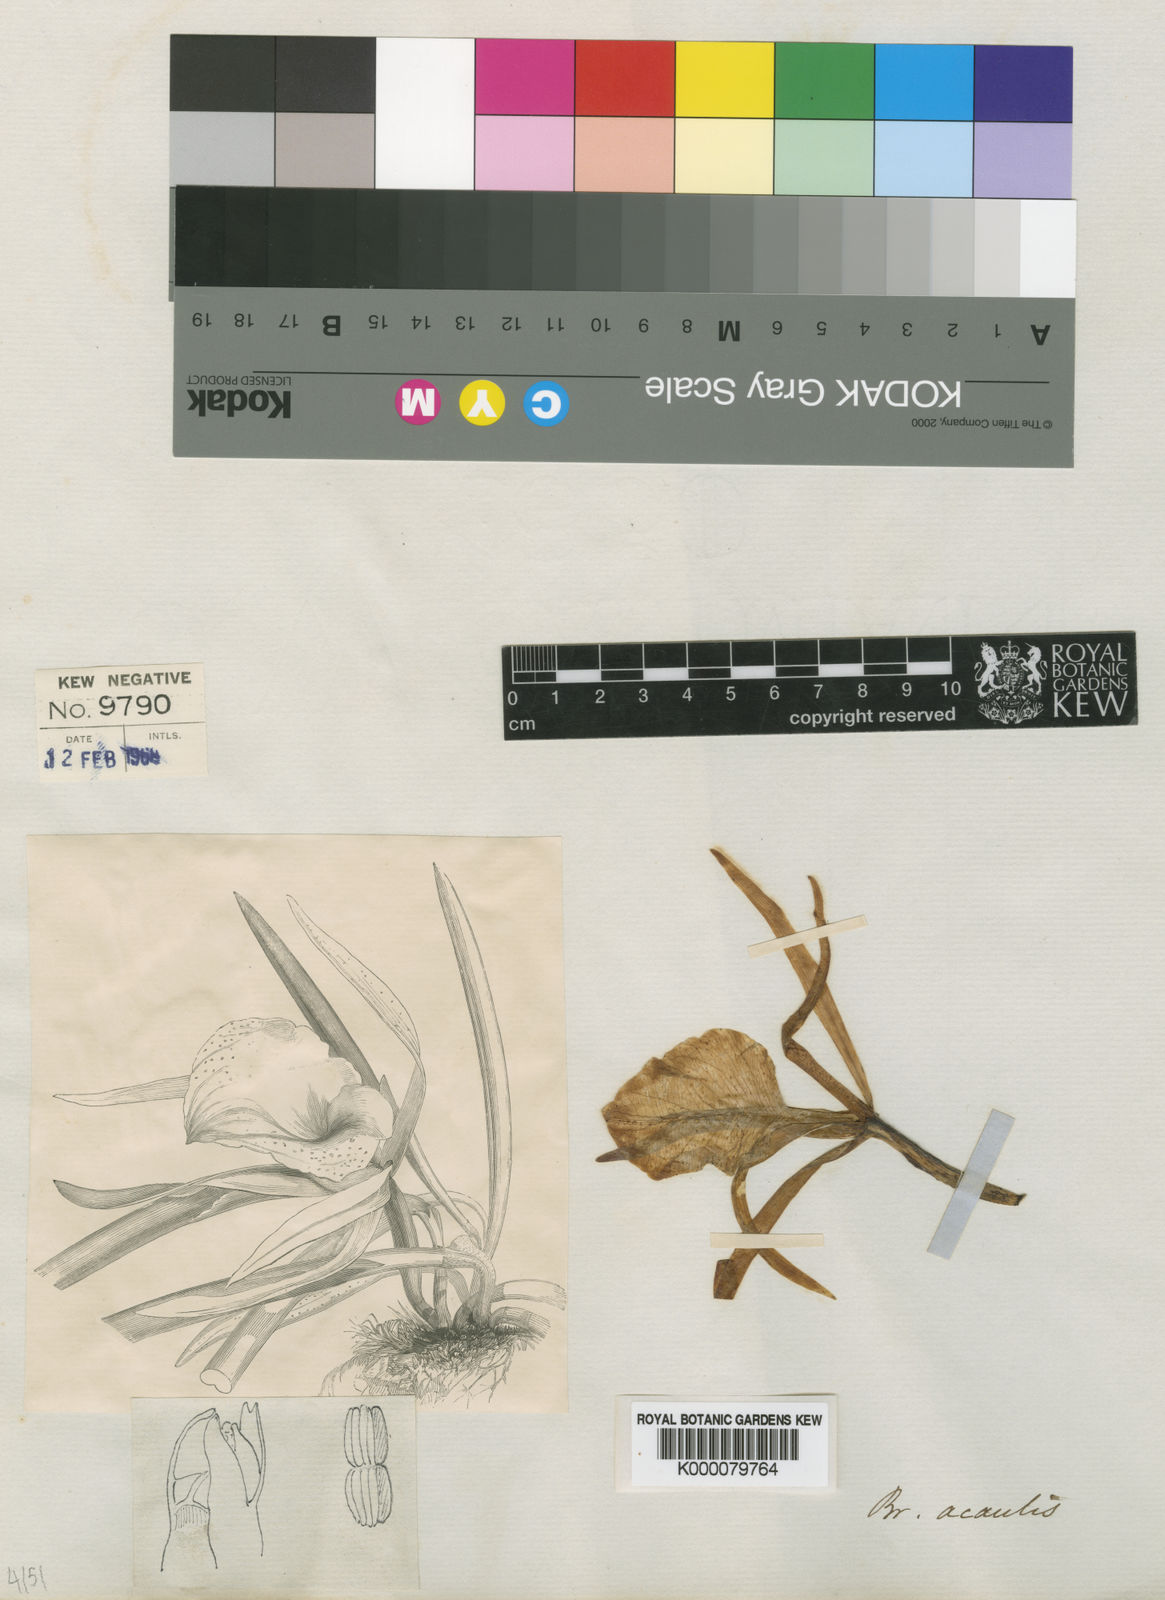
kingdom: Plantae
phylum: Tracheophyta
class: Liliopsida
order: Asparagales
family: Orchidaceae
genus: Brassavola
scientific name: Brassavola acaulis
